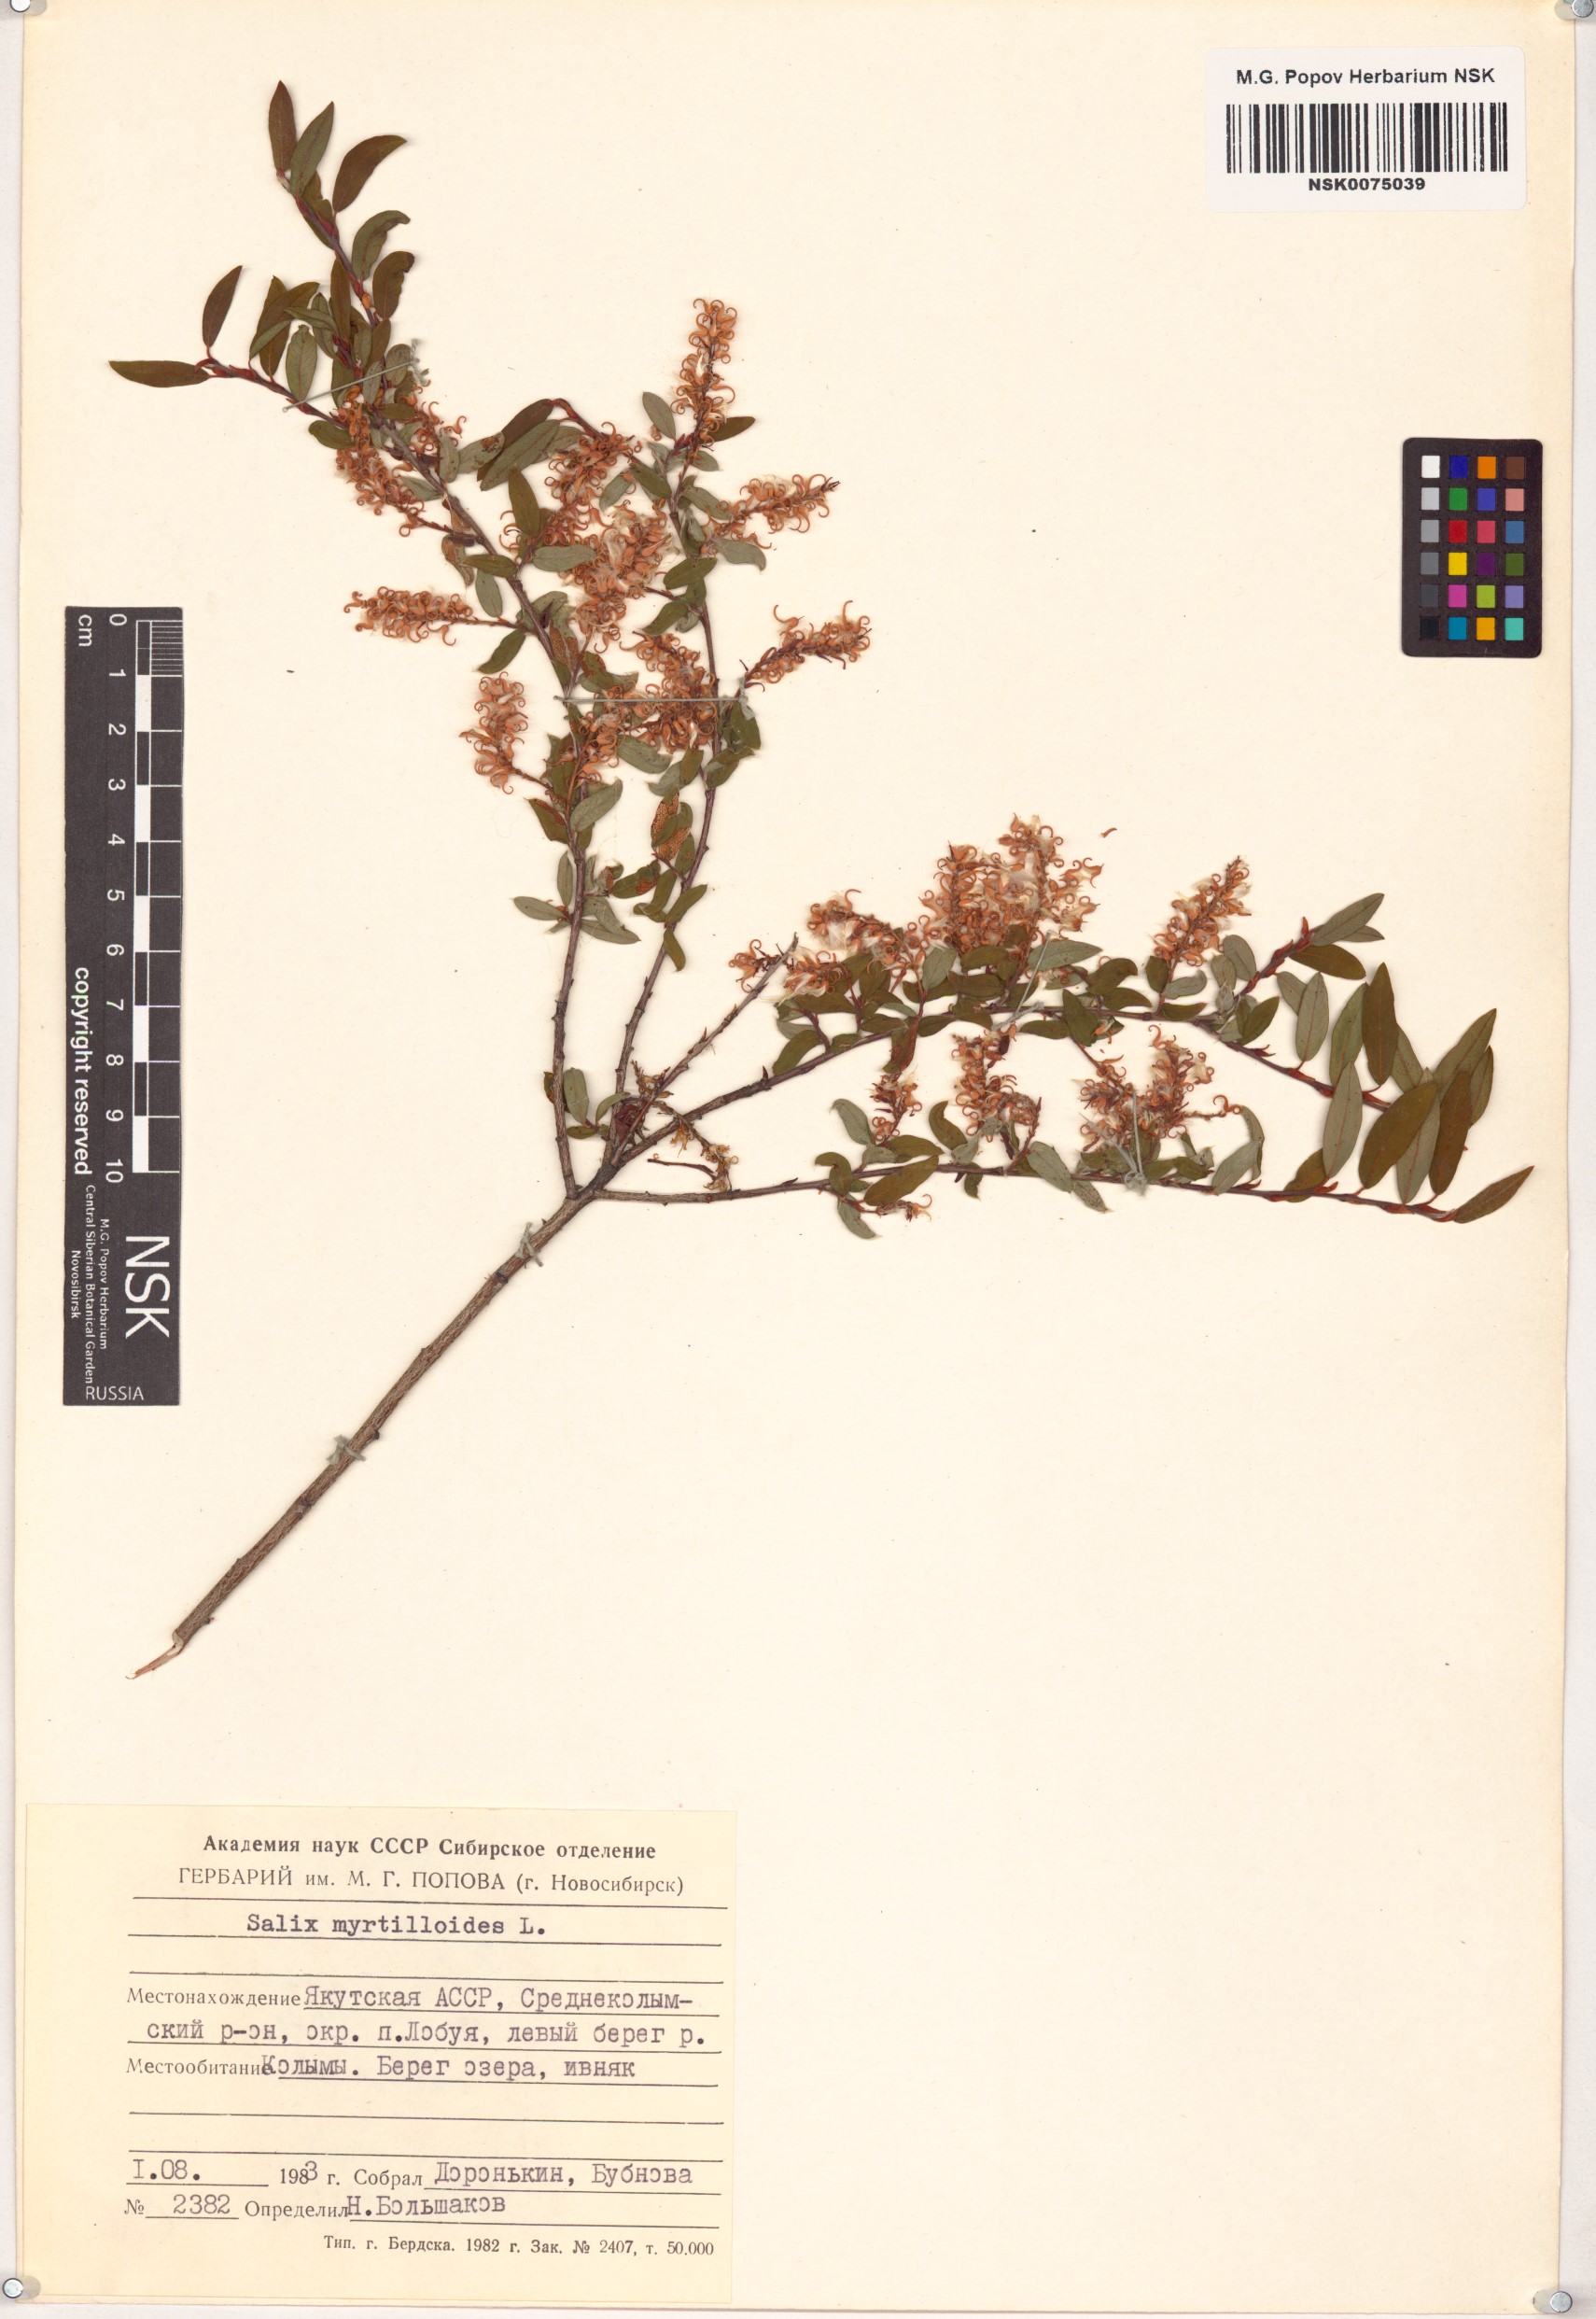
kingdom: Plantae
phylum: Tracheophyta
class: Magnoliopsida
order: Malpighiales
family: Salicaceae
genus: Salix
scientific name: Salix myrtilloides
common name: Myrtle-leaved willow
